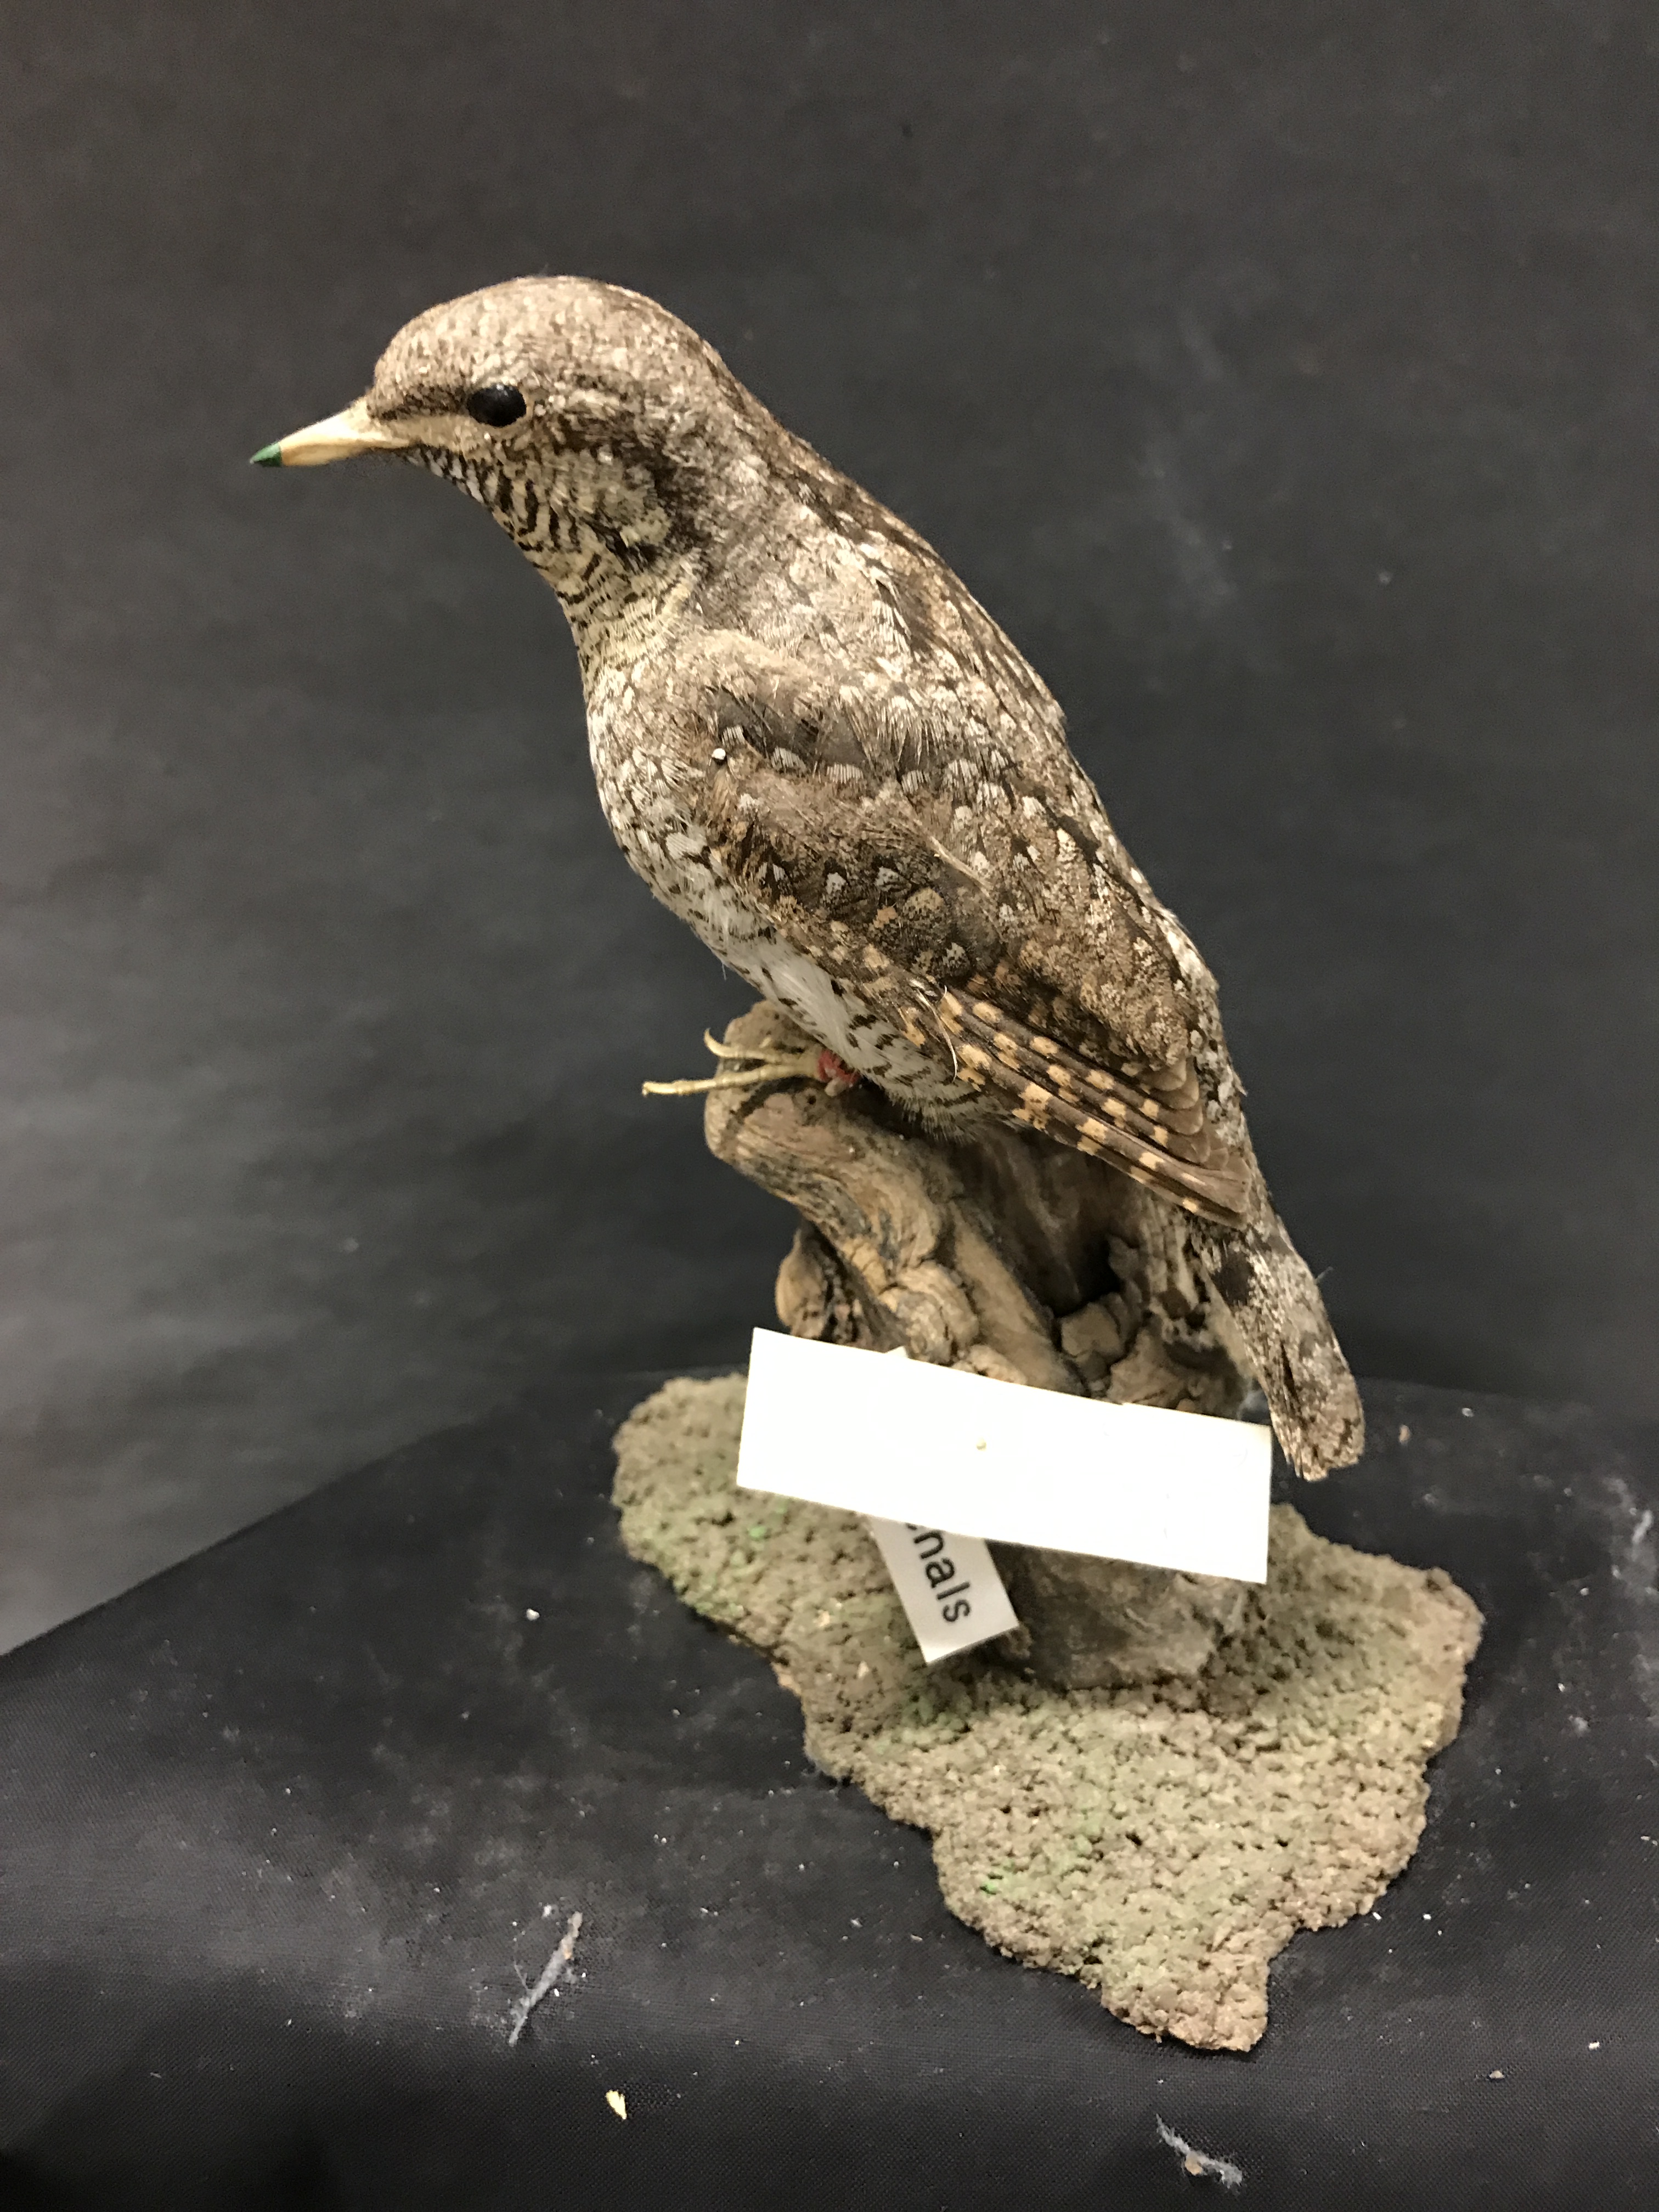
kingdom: Animalia
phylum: Chordata
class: Aves
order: Piciformes
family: Picidae
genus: Jynx
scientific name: Jynx torquilla
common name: Eurasian wryneck
